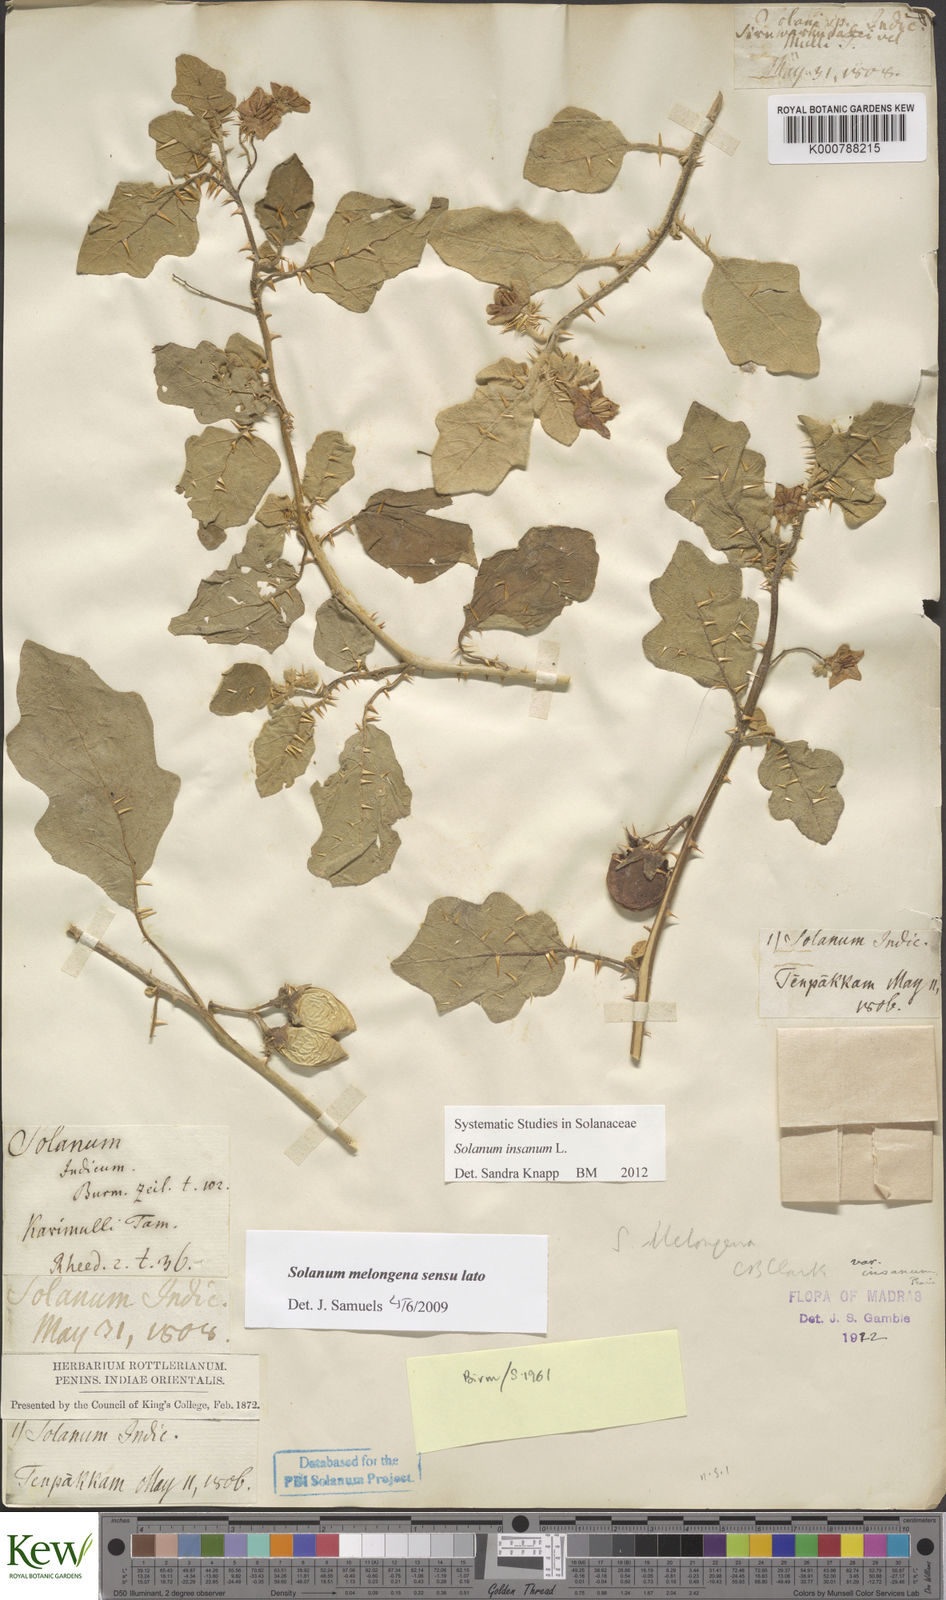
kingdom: Plantae
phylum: Tracheophyta
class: Magnoliopsida
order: Solanales
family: Solanaceae
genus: Solanum
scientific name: Solanum insanum
